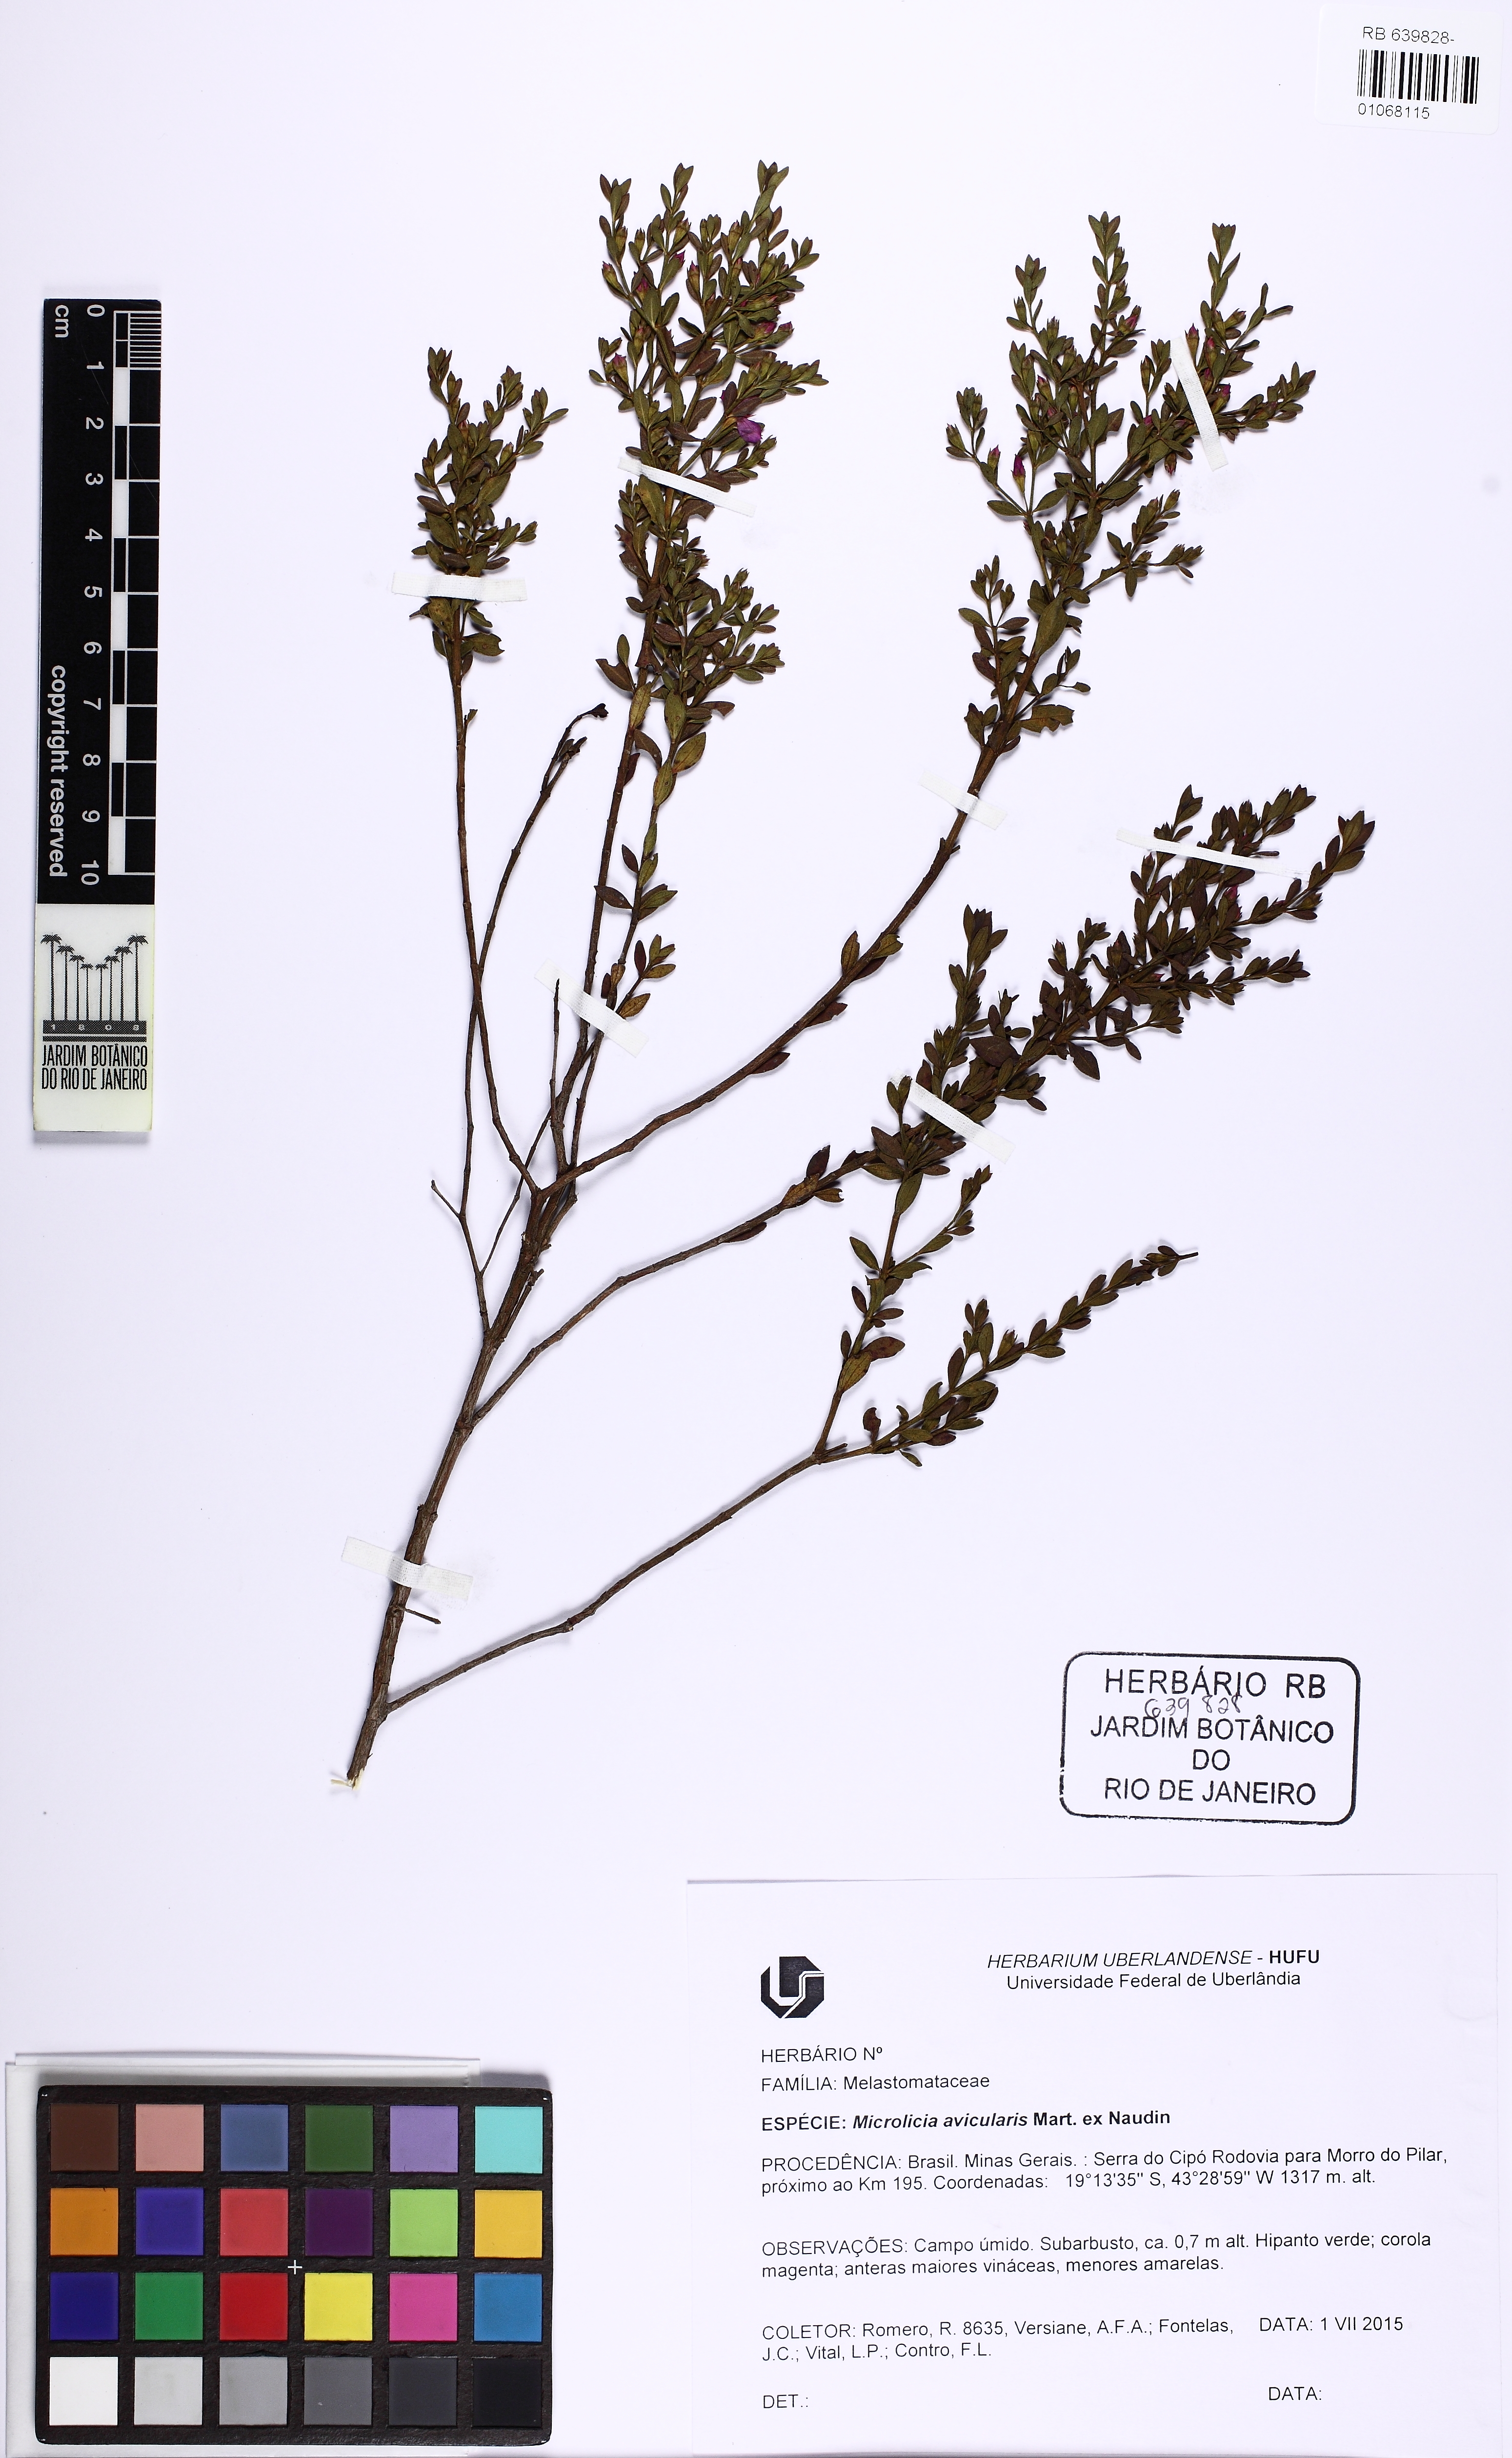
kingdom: Plantae
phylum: Tracheophyta
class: Magnoliopsida
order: Myrtales
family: Melastomataceae
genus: Microlicia
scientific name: Microlicia avicularis
